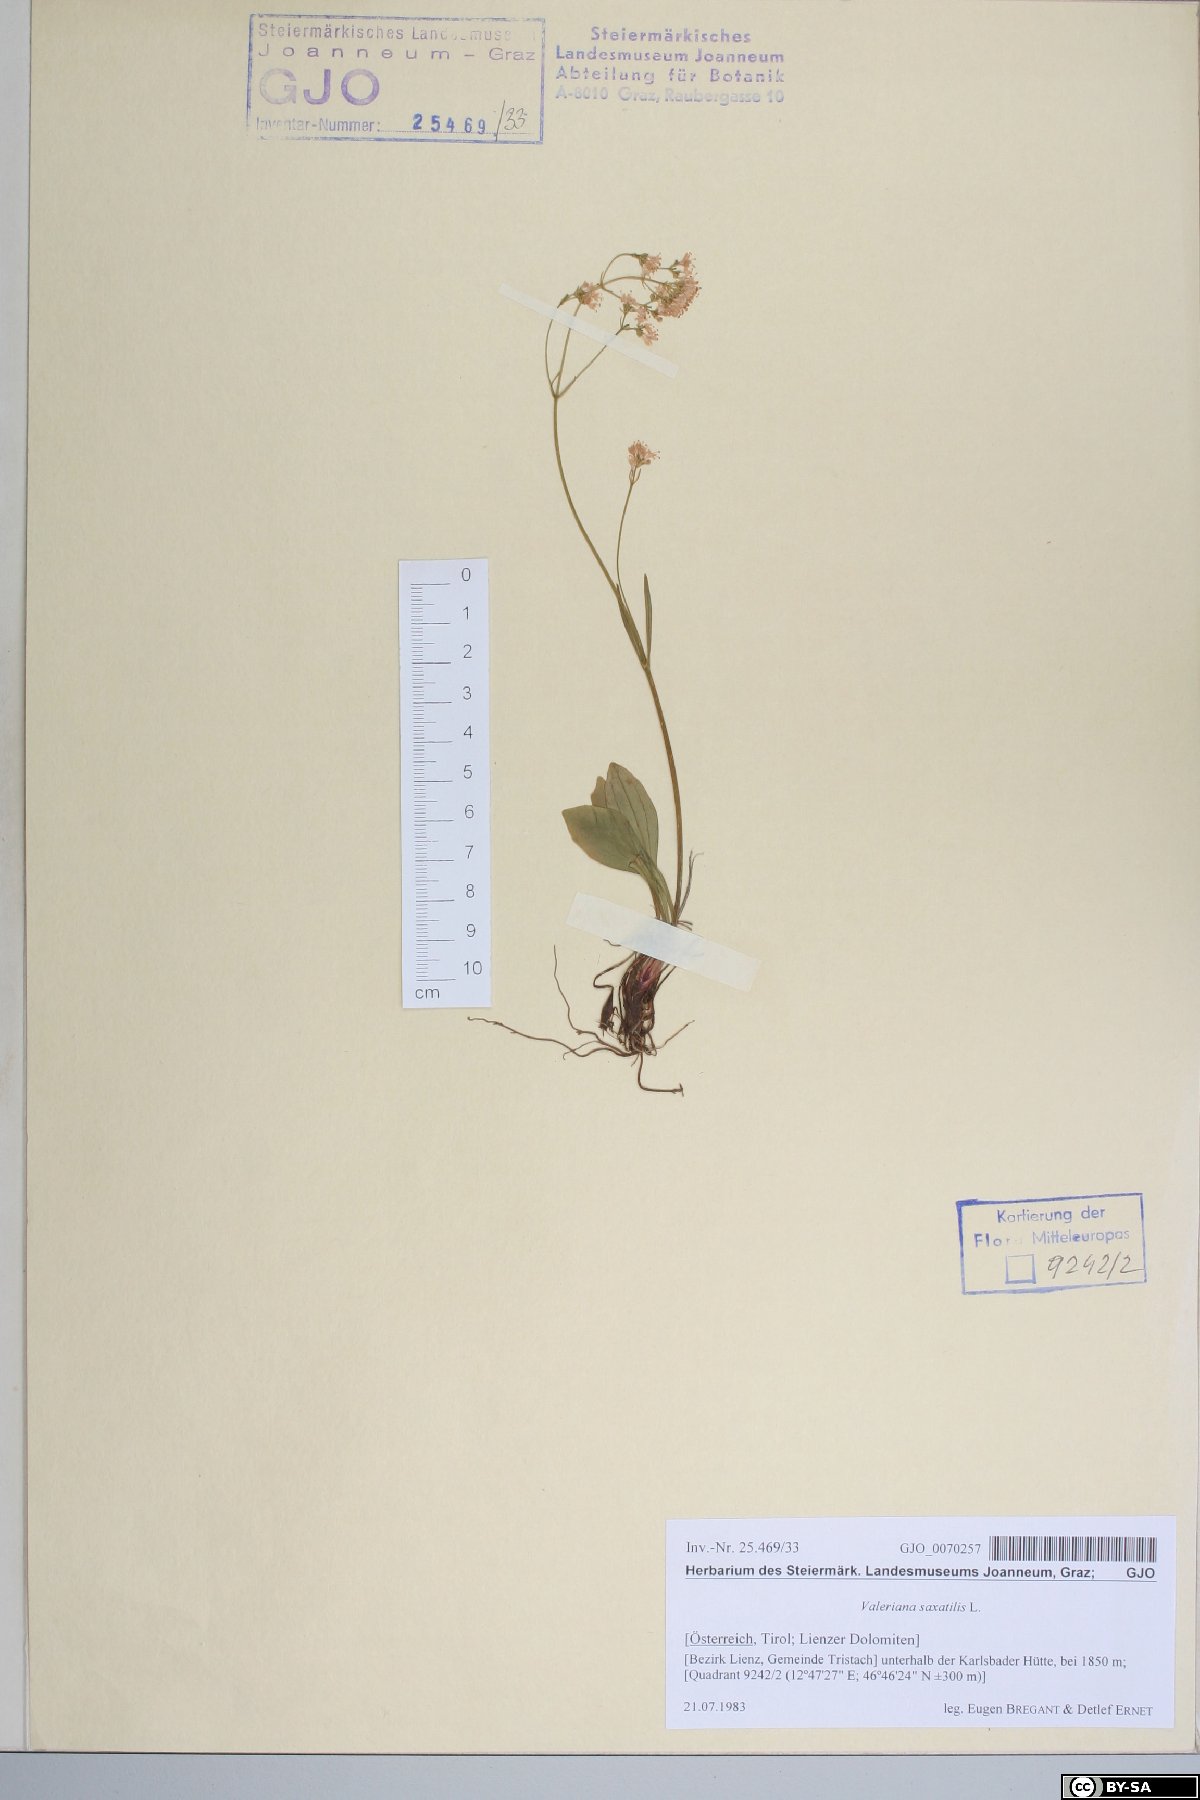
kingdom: Plantae
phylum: Tracheophyta
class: Magnoliopsida
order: Dipsacales
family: Caprifoliaceae
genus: Valeriana
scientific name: Valeriana saxatilis
